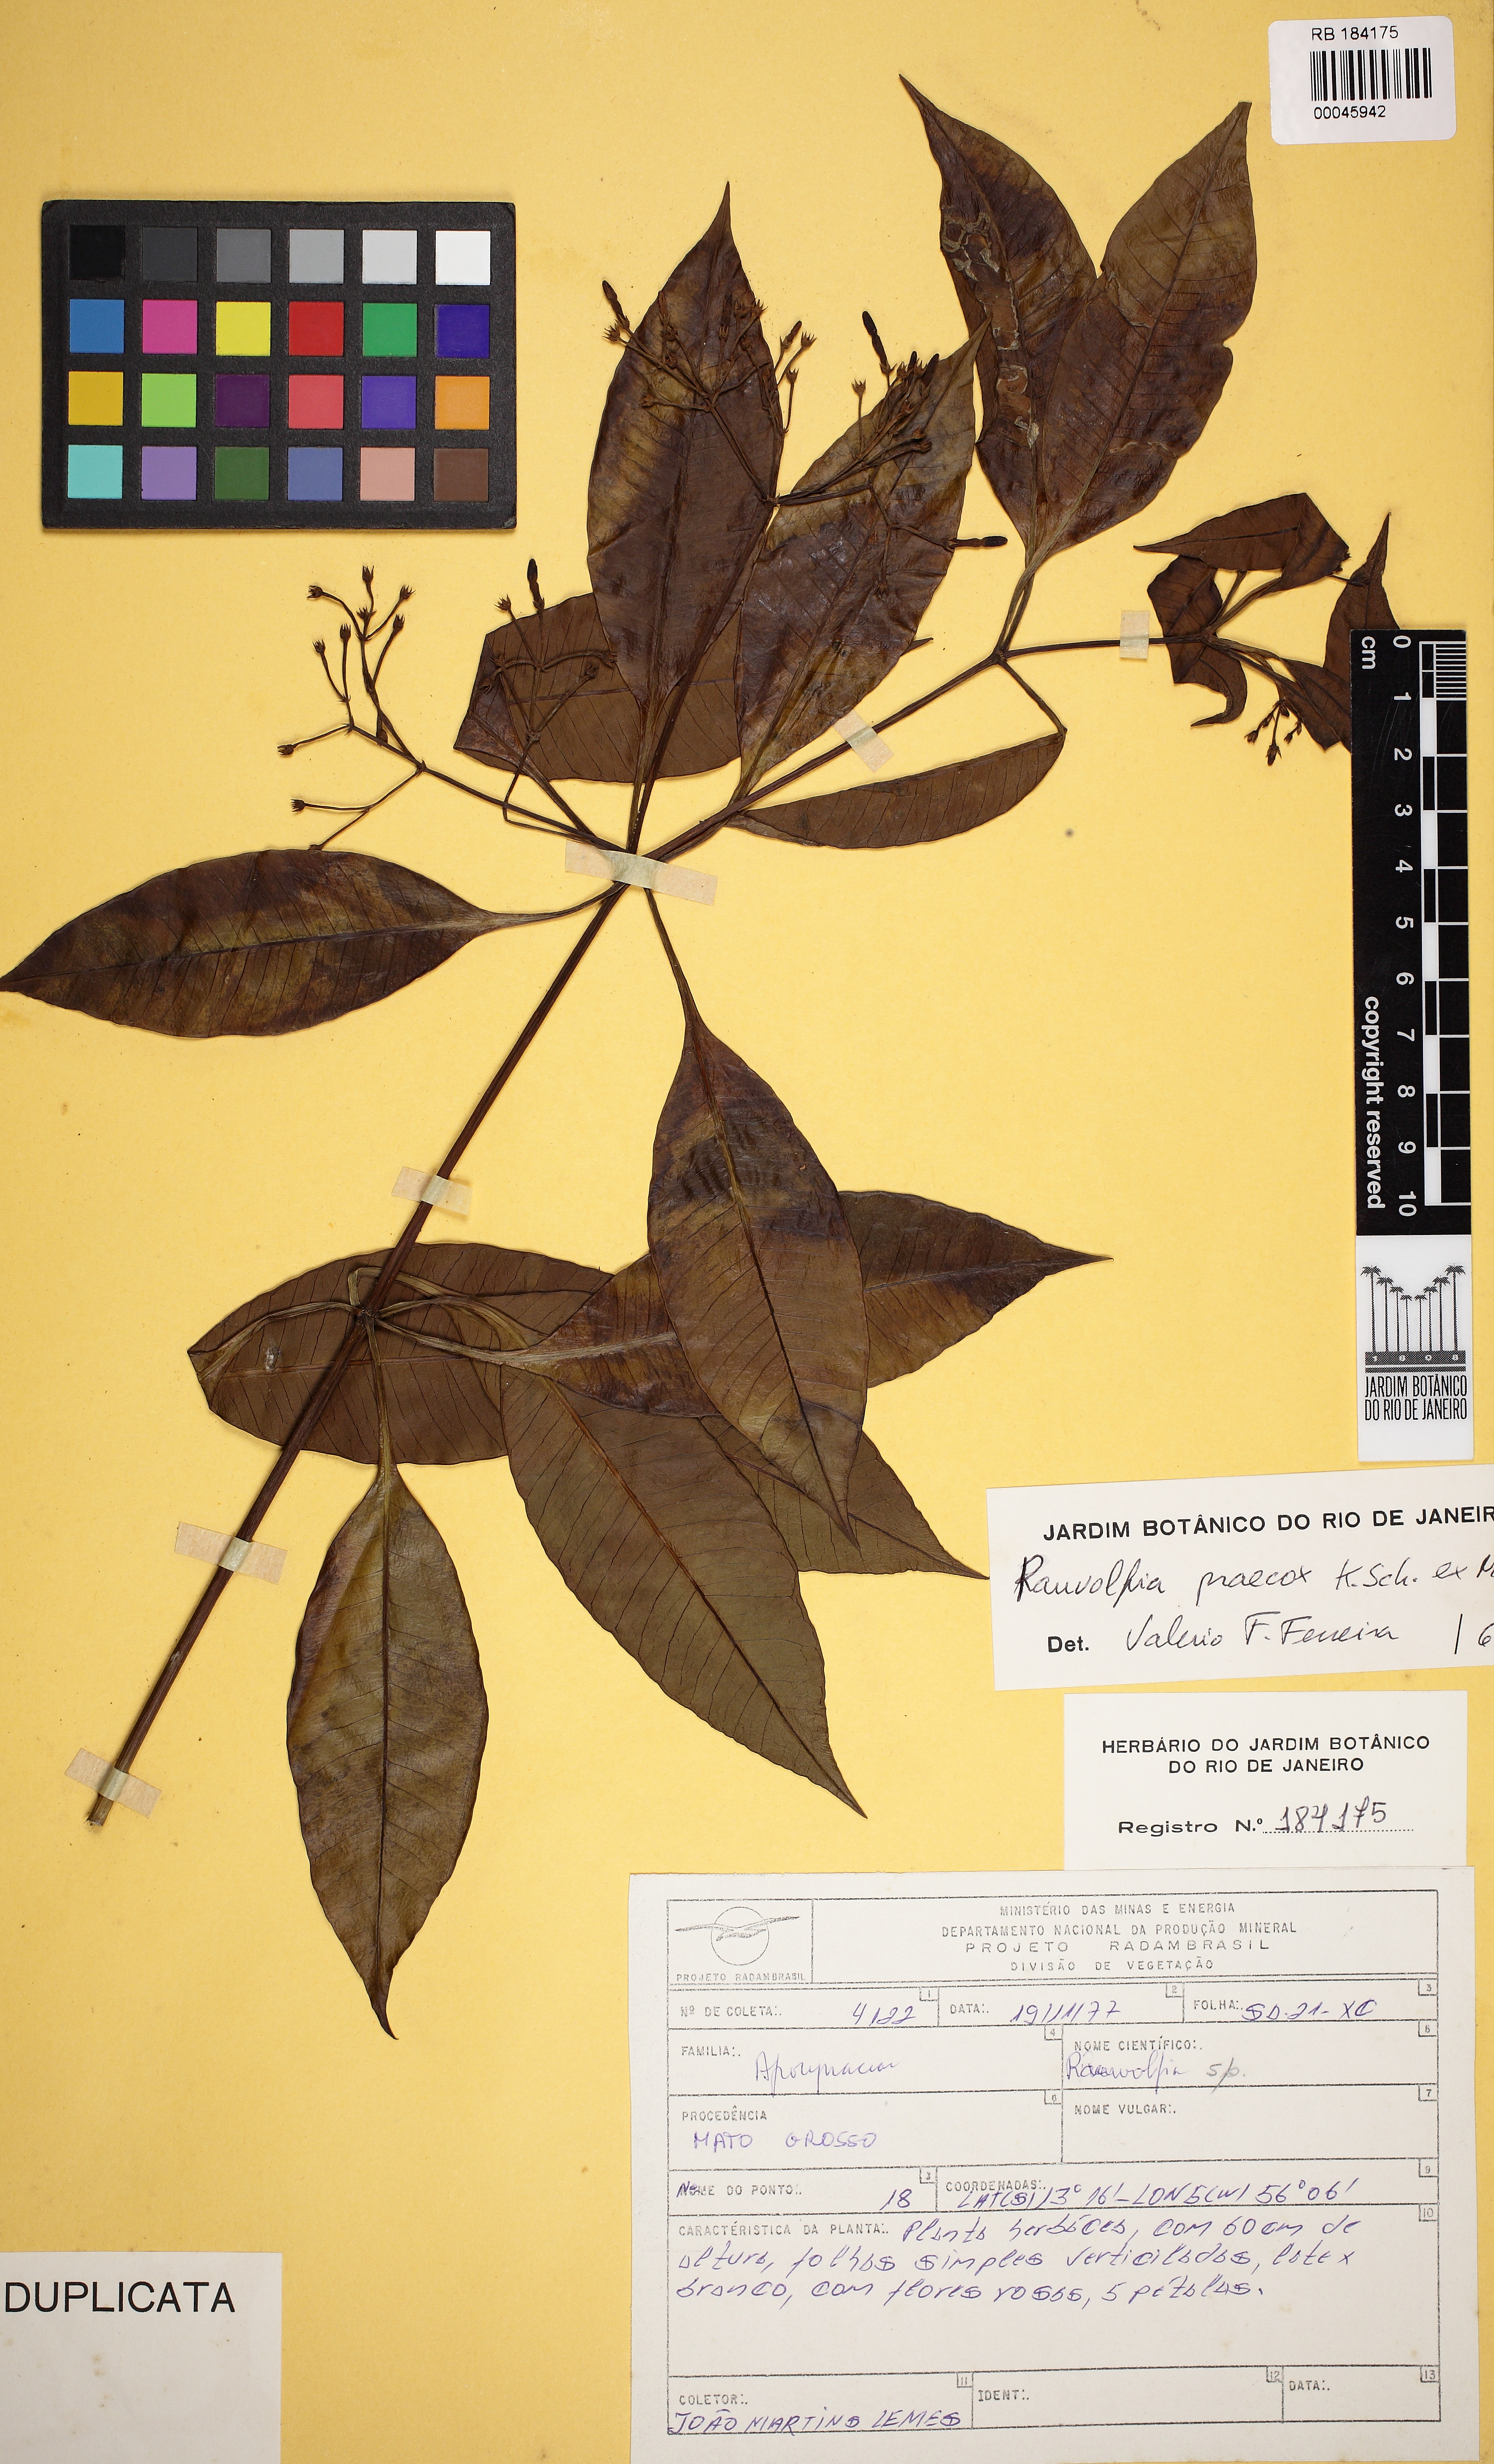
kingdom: Plantae
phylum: Tracheophyta
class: Magnoliopsida
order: Gentianales
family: Apocynaceae
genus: Rauvolfia
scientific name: Rauvolfia praecox
